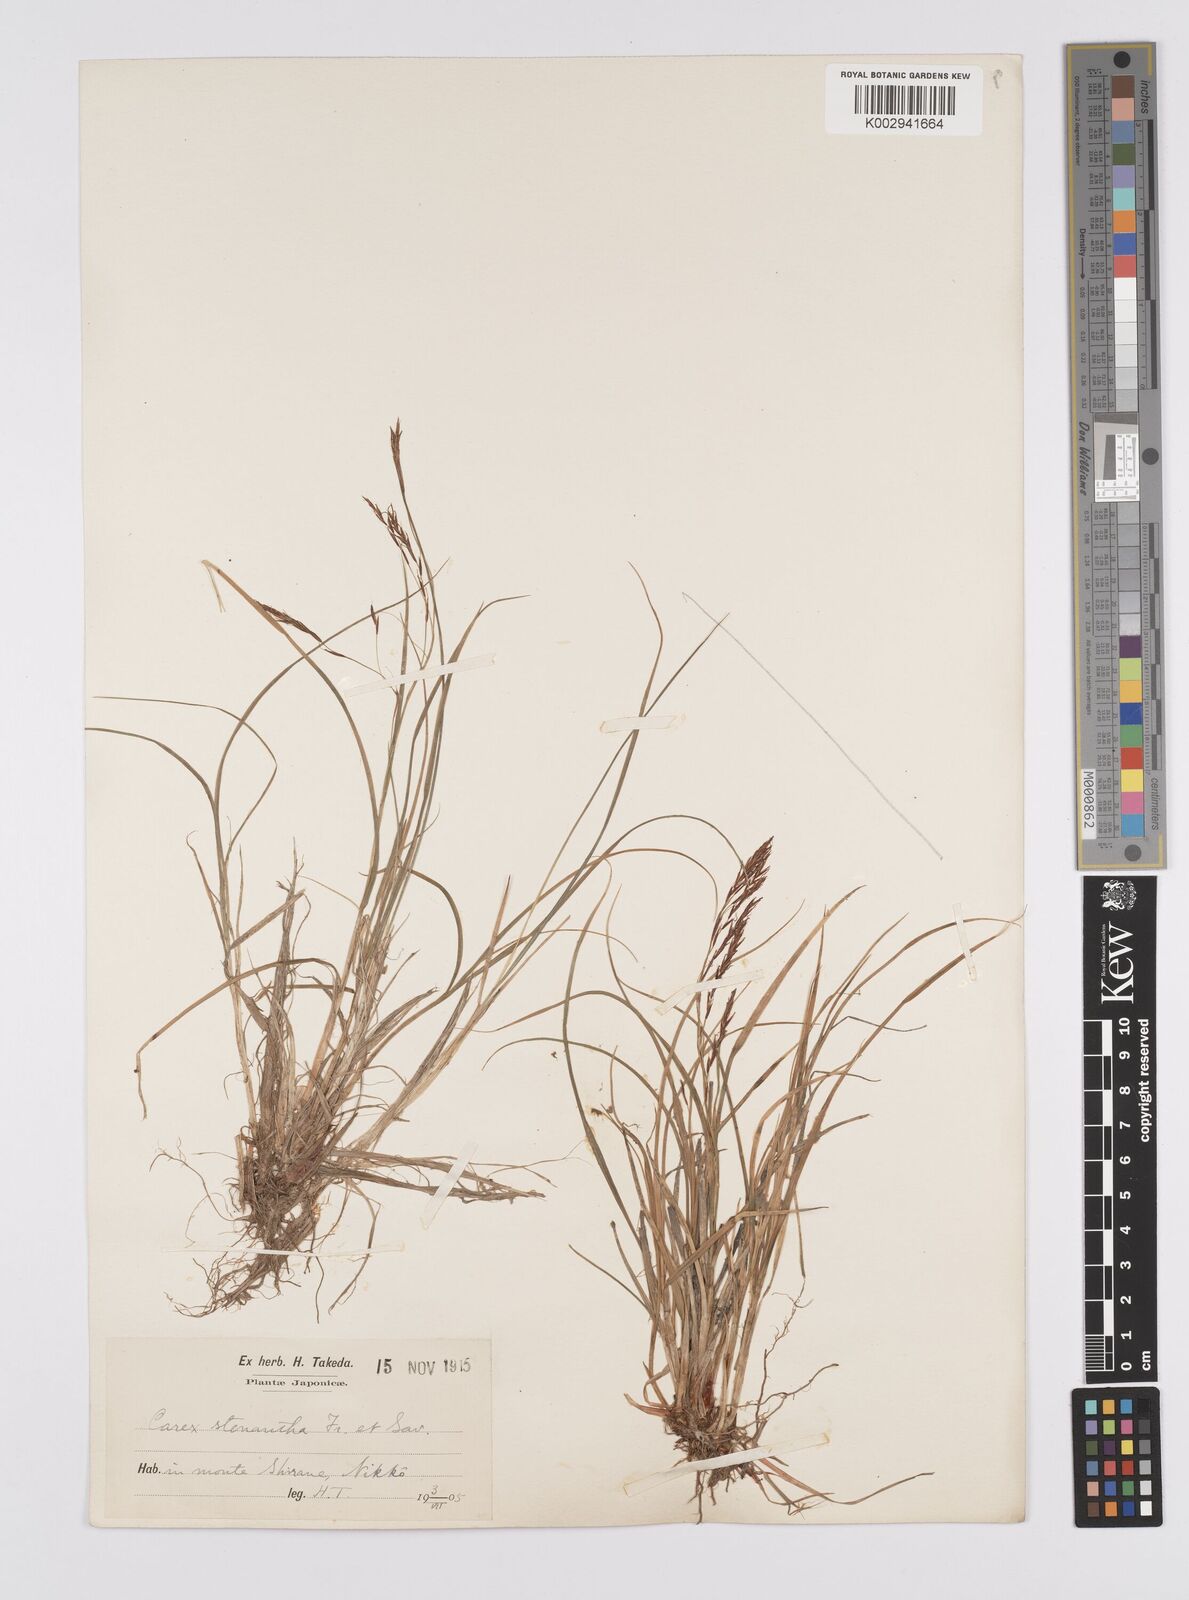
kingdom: Plantae
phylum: Tracheophyta
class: Liliopsida
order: Poales
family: Cyperaceae
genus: Carex
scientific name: Carex stenantha
